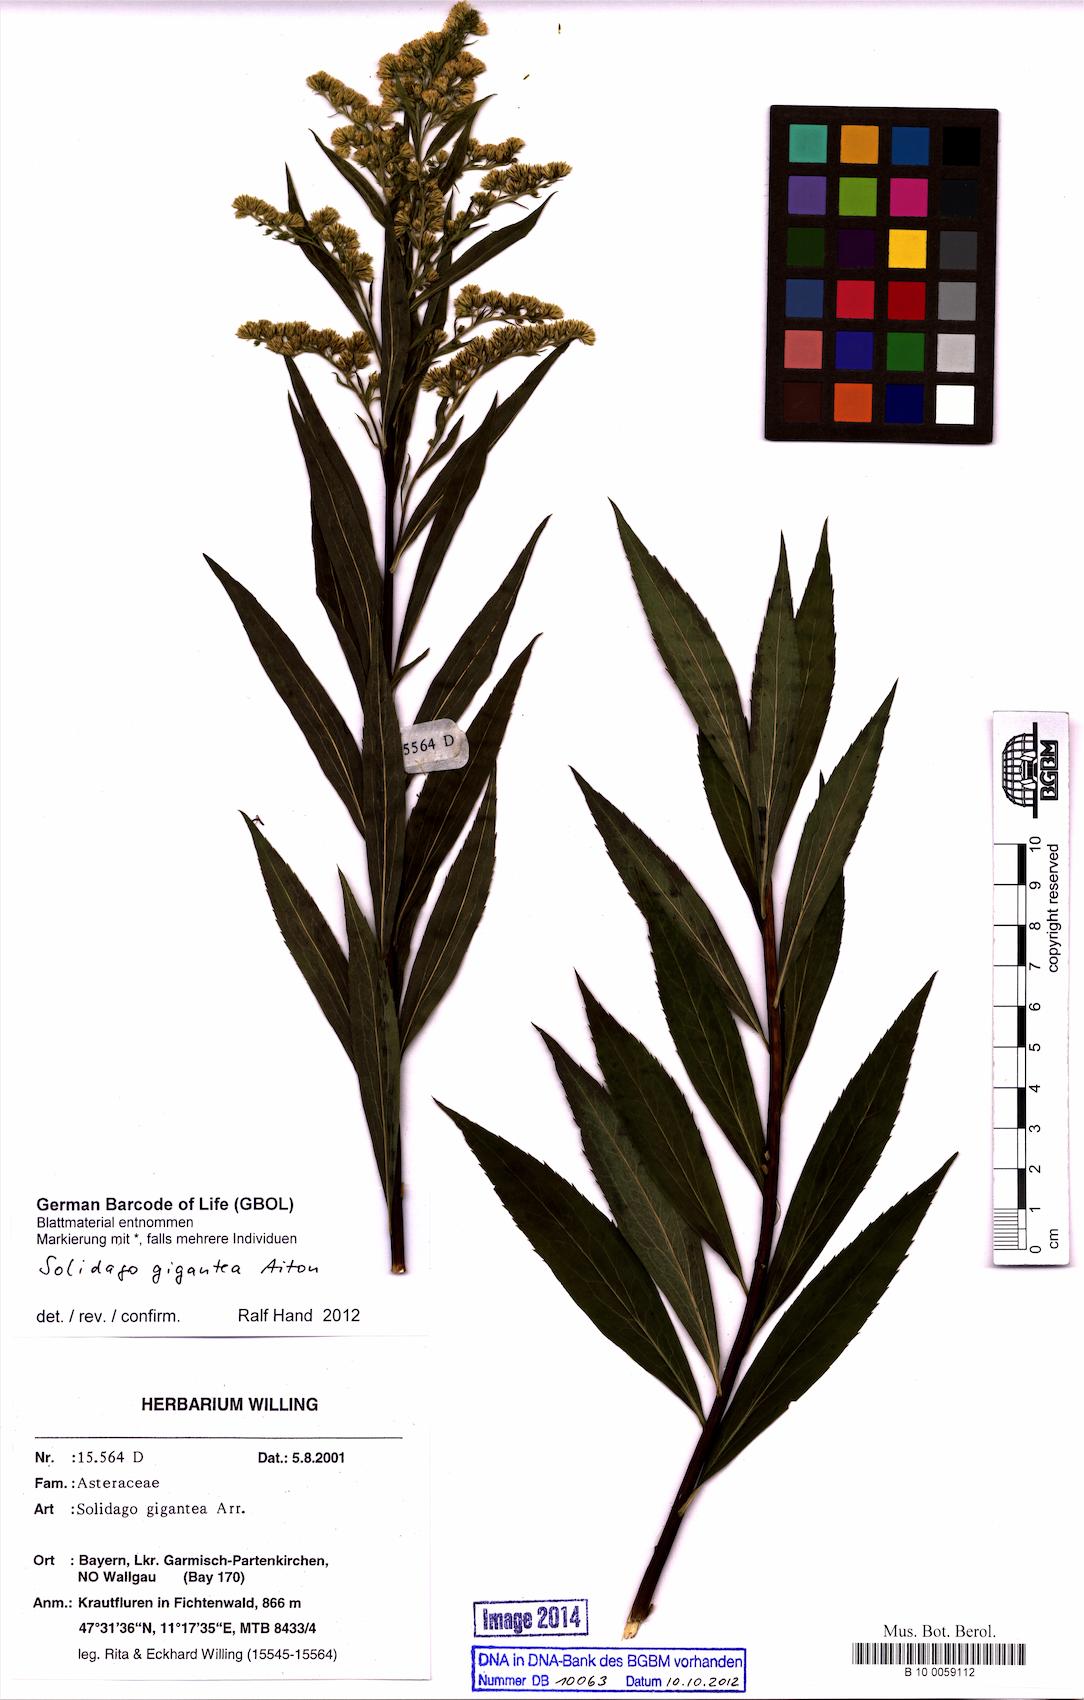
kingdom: Plantae
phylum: Tracheophyta
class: Magnoliopsida
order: Asterales
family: Asteraceae
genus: Solidago
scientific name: Solidago gigantea
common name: Giant goldenrod
